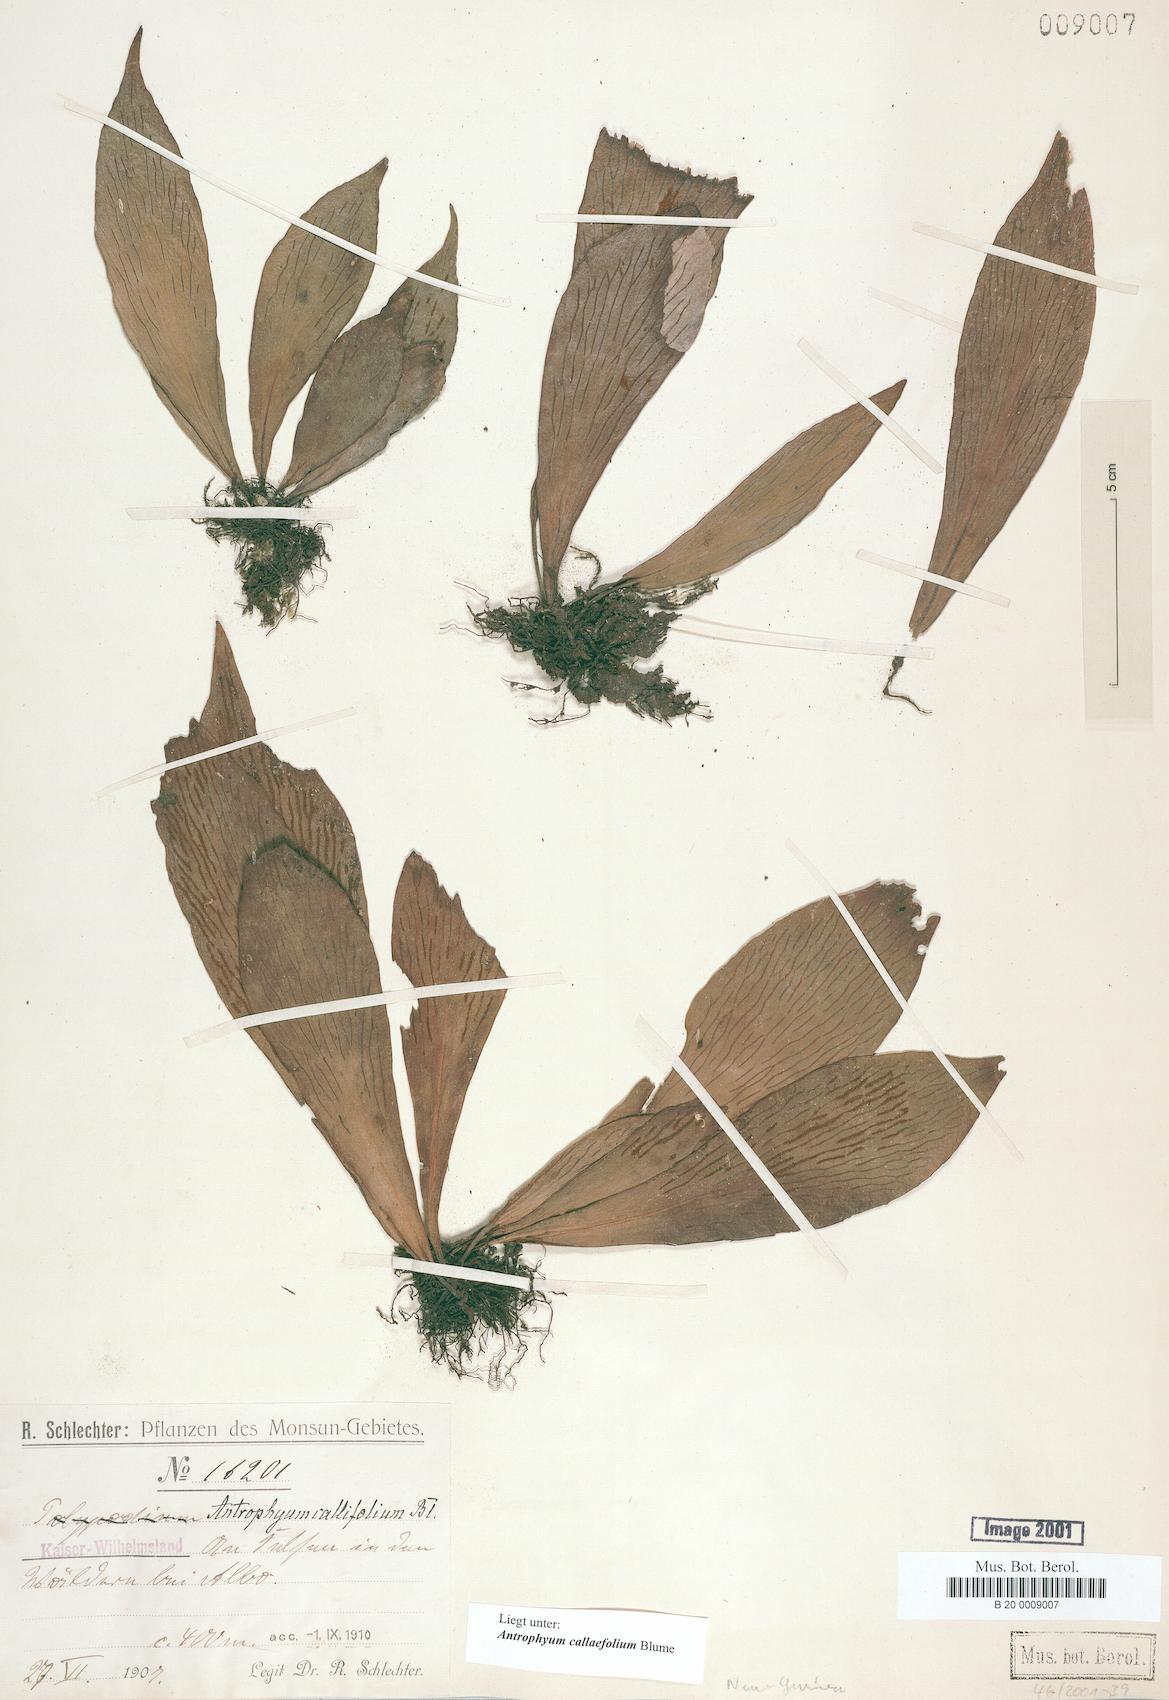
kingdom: Plantae
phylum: Tracheophyta
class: Polypodiopsida
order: Polypodiales
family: Pteridaceae
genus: Antrophyum
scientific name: Antrophyum callifolium
